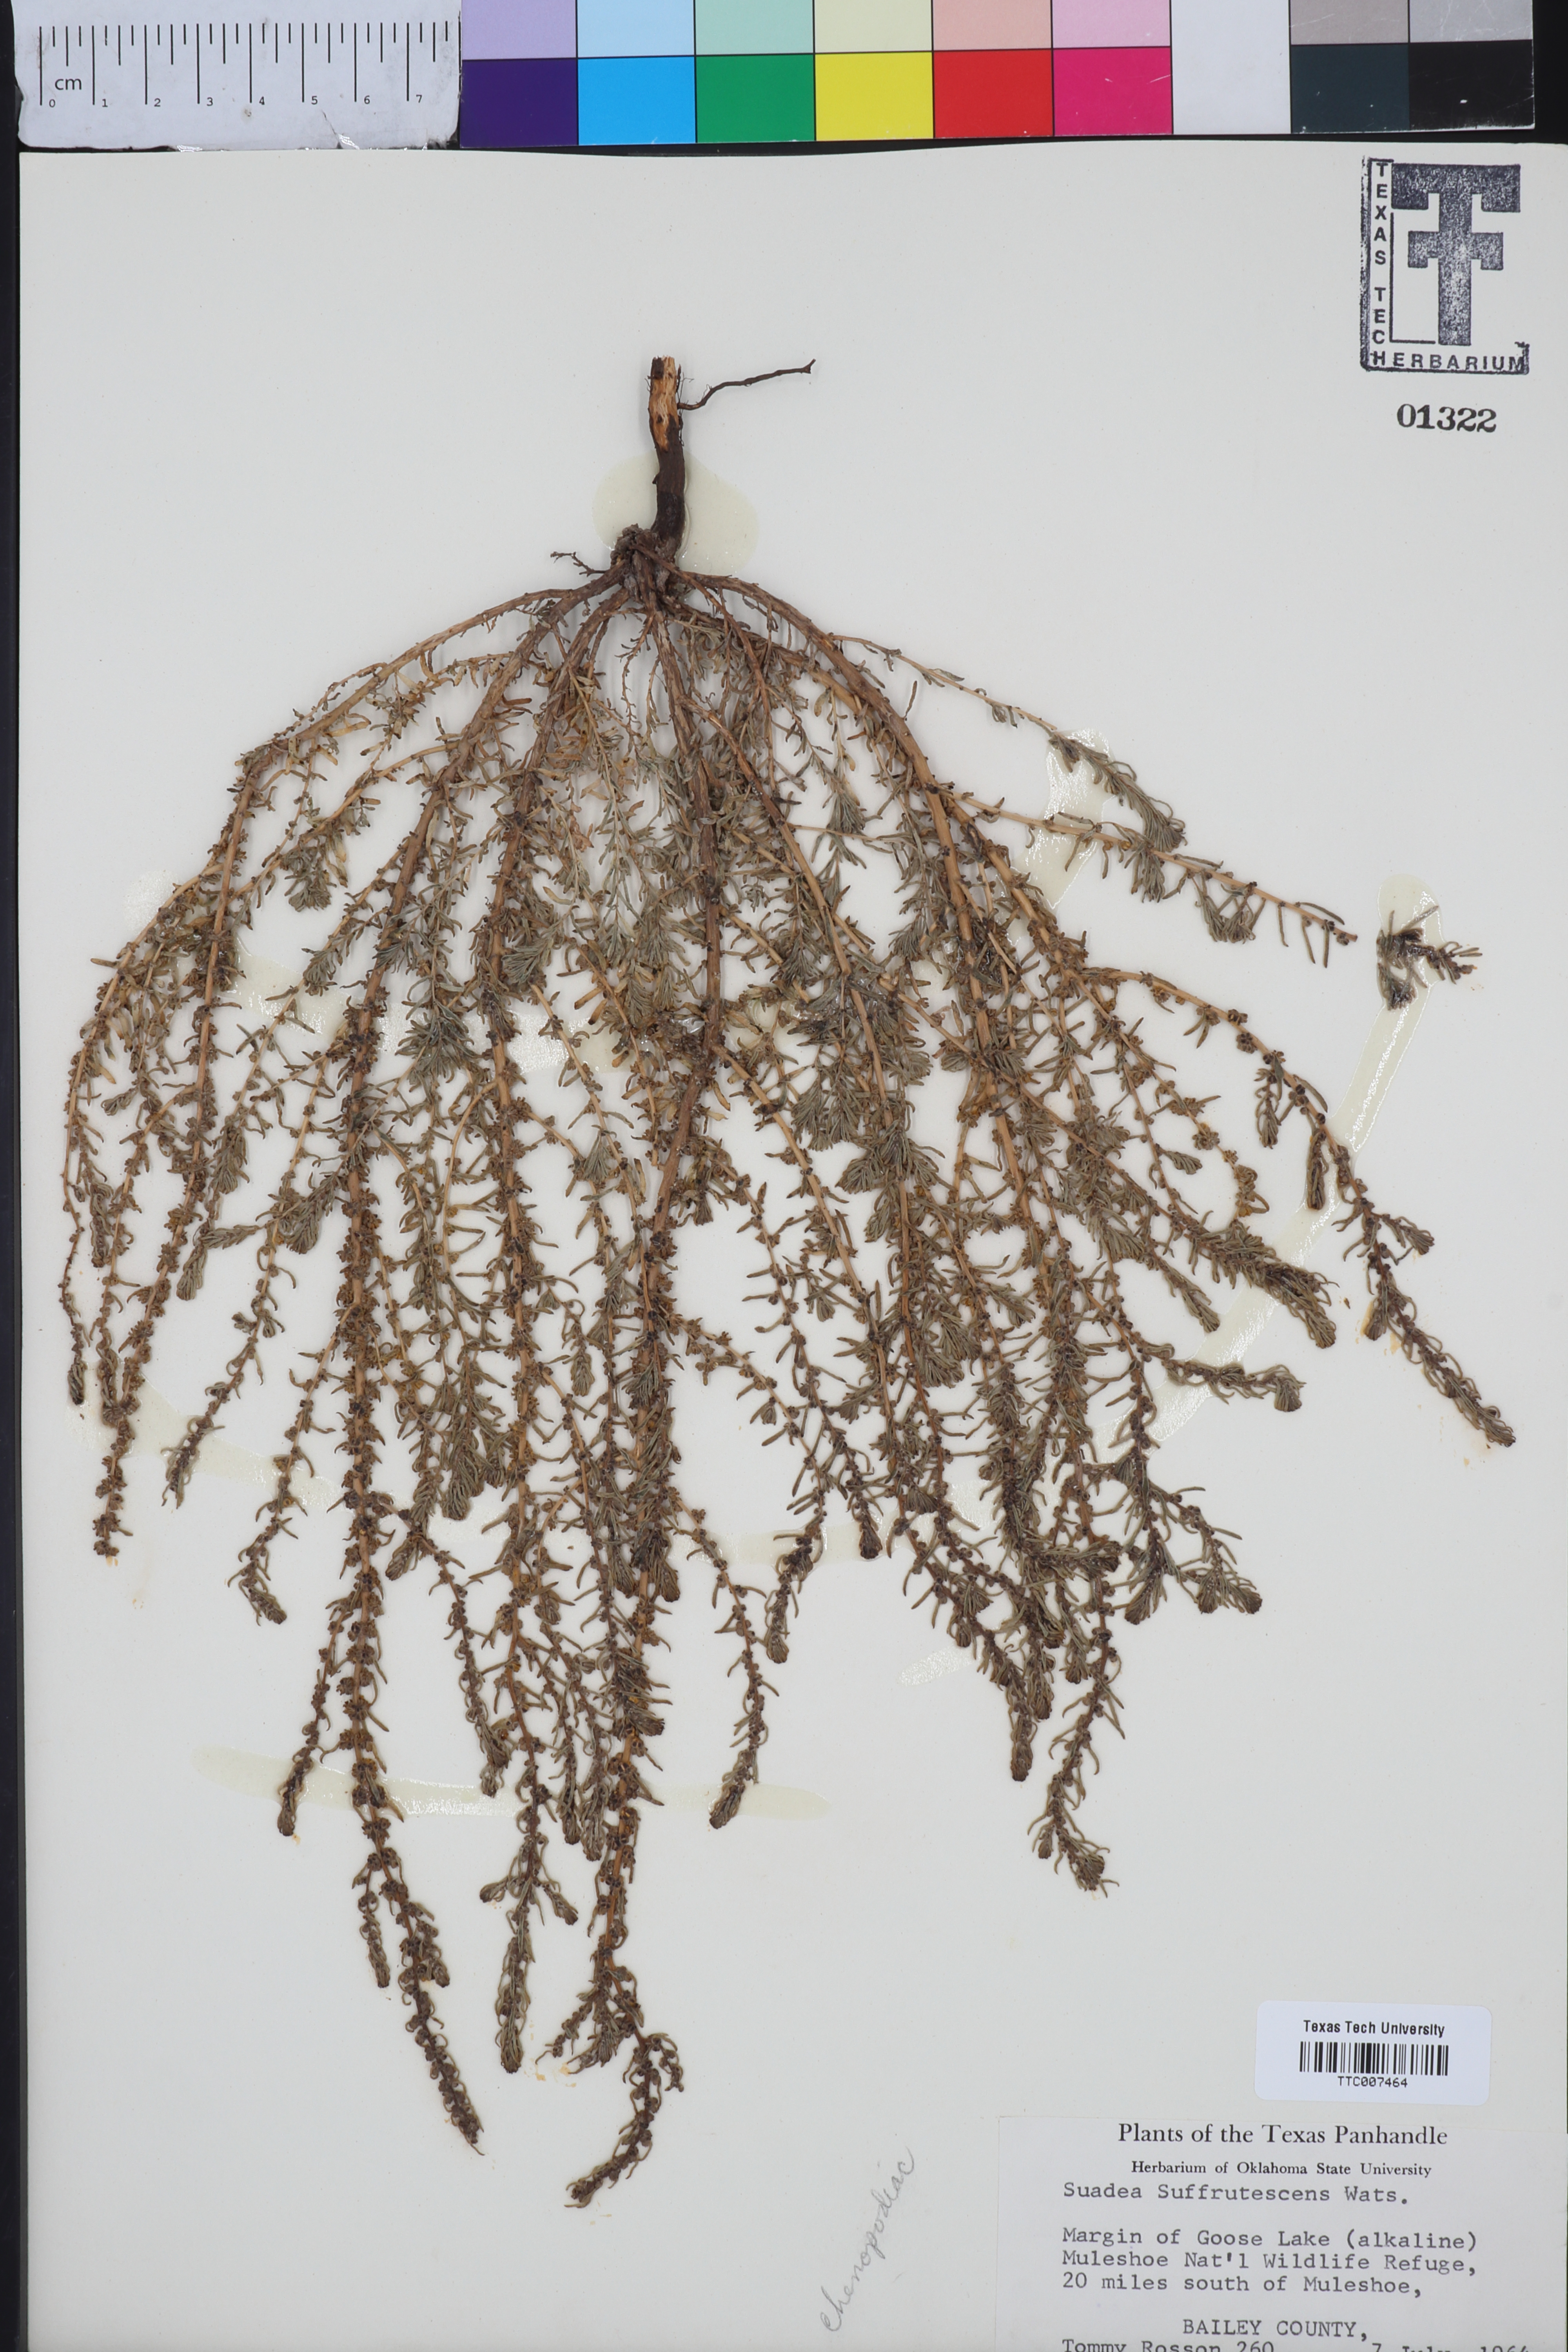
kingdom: Plantae
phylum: Tracheophyta
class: Magnoliopsida
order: Caryophyllales
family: Amaranthaceae
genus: Suaeda
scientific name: Suaeda suffrutescens
